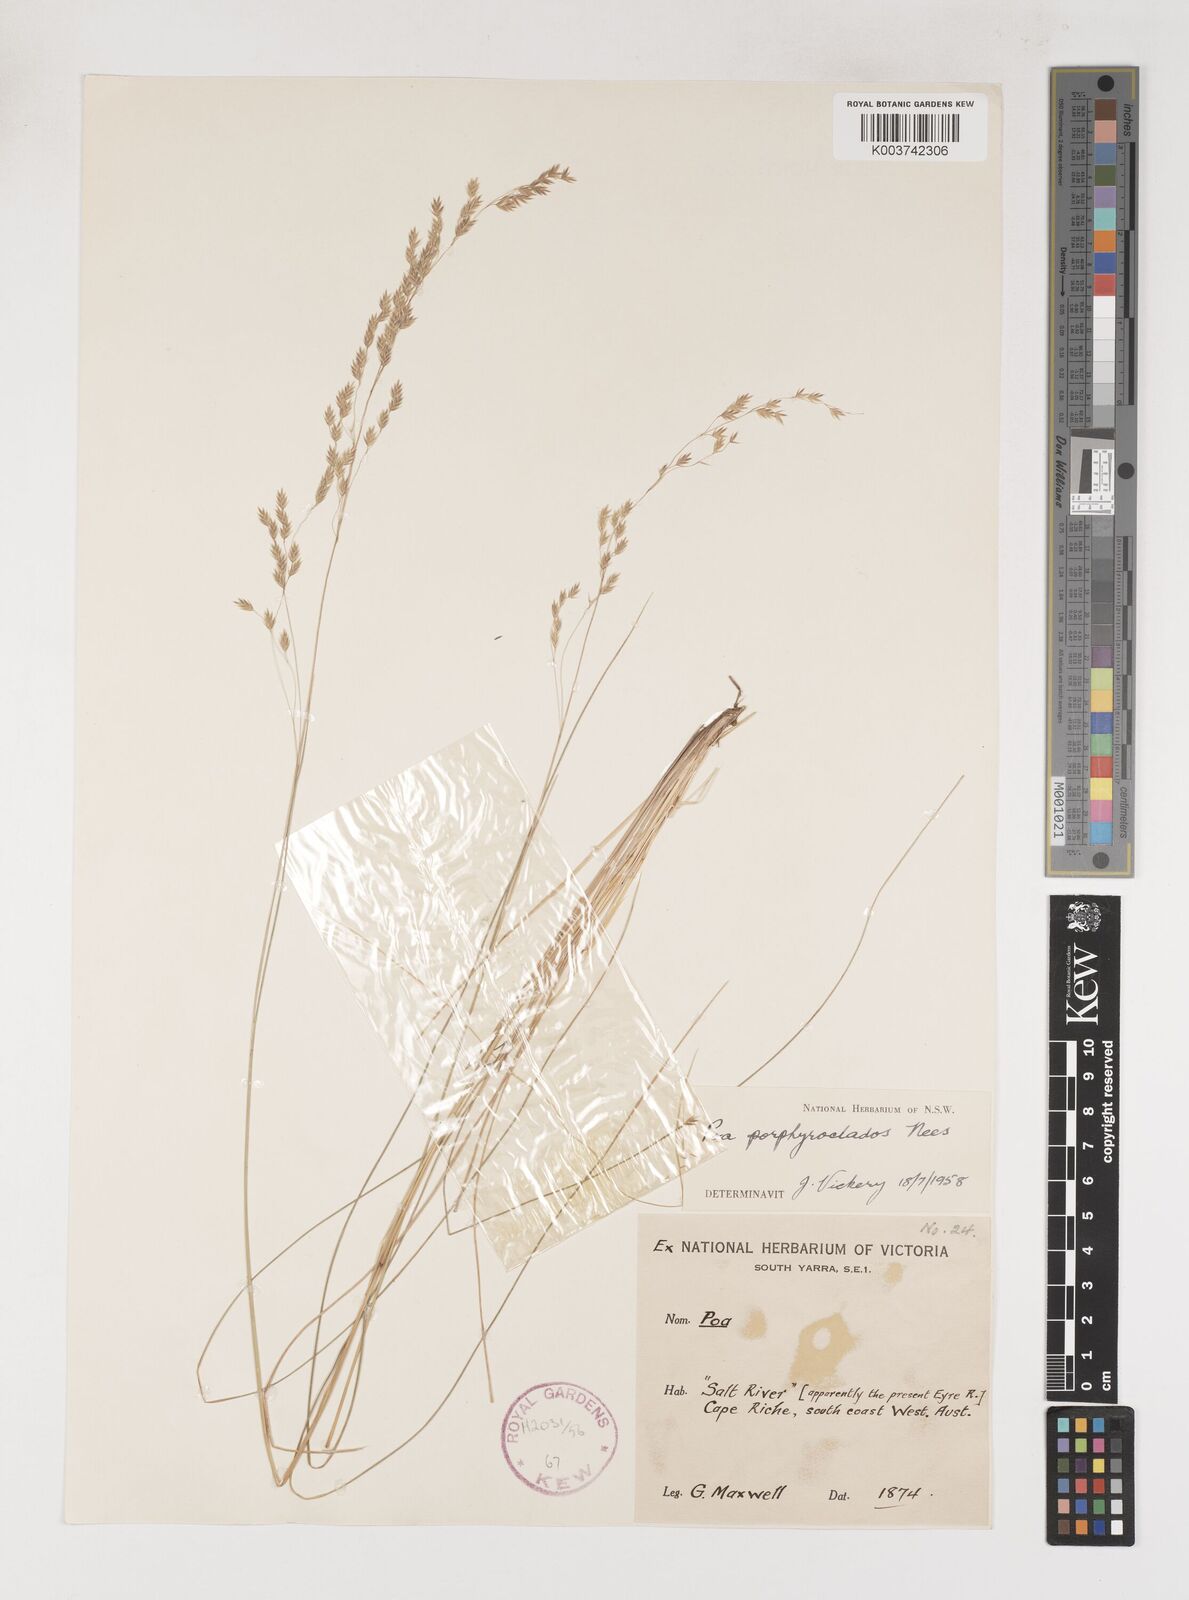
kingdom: Plantae
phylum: Tracheophyta
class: Liliopsida
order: Poales
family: Poaceae
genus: Poa
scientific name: Poa porphyroclados
